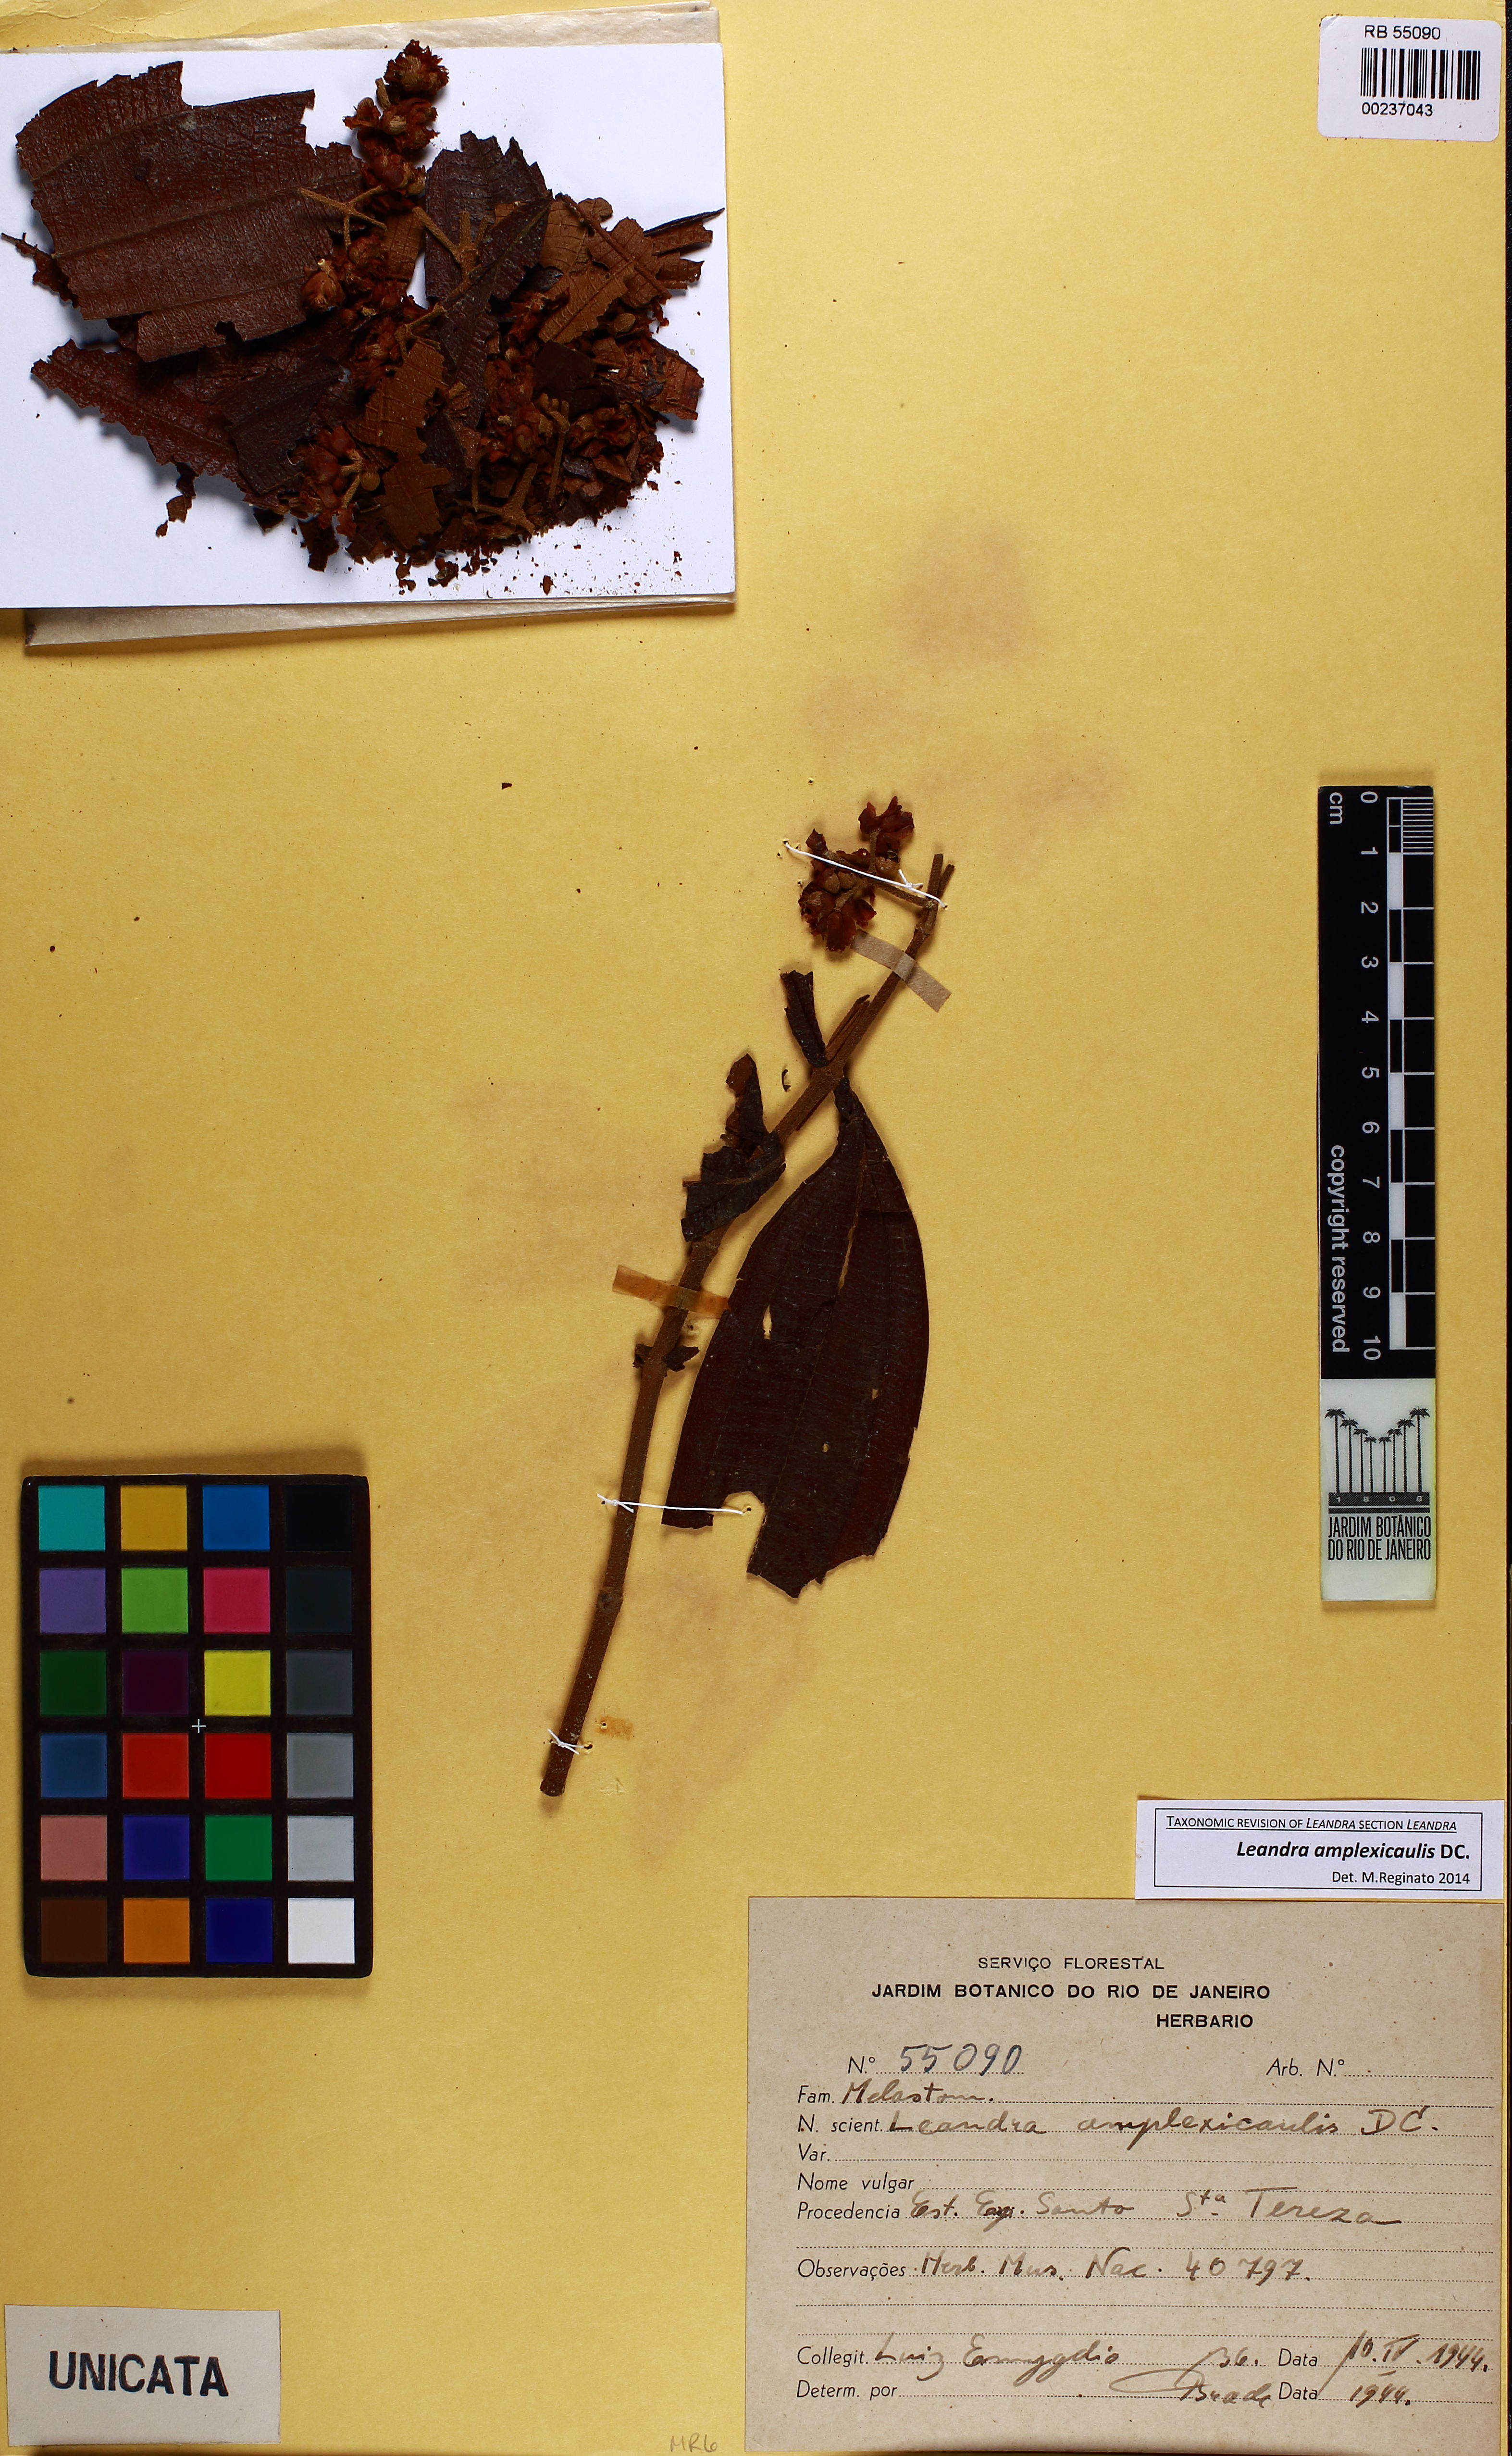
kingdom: Plantae
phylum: Tracheophyta
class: Magnoliopsida
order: Myrtales
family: Melastomataceae
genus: Miconia
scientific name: Miconia pectinata
